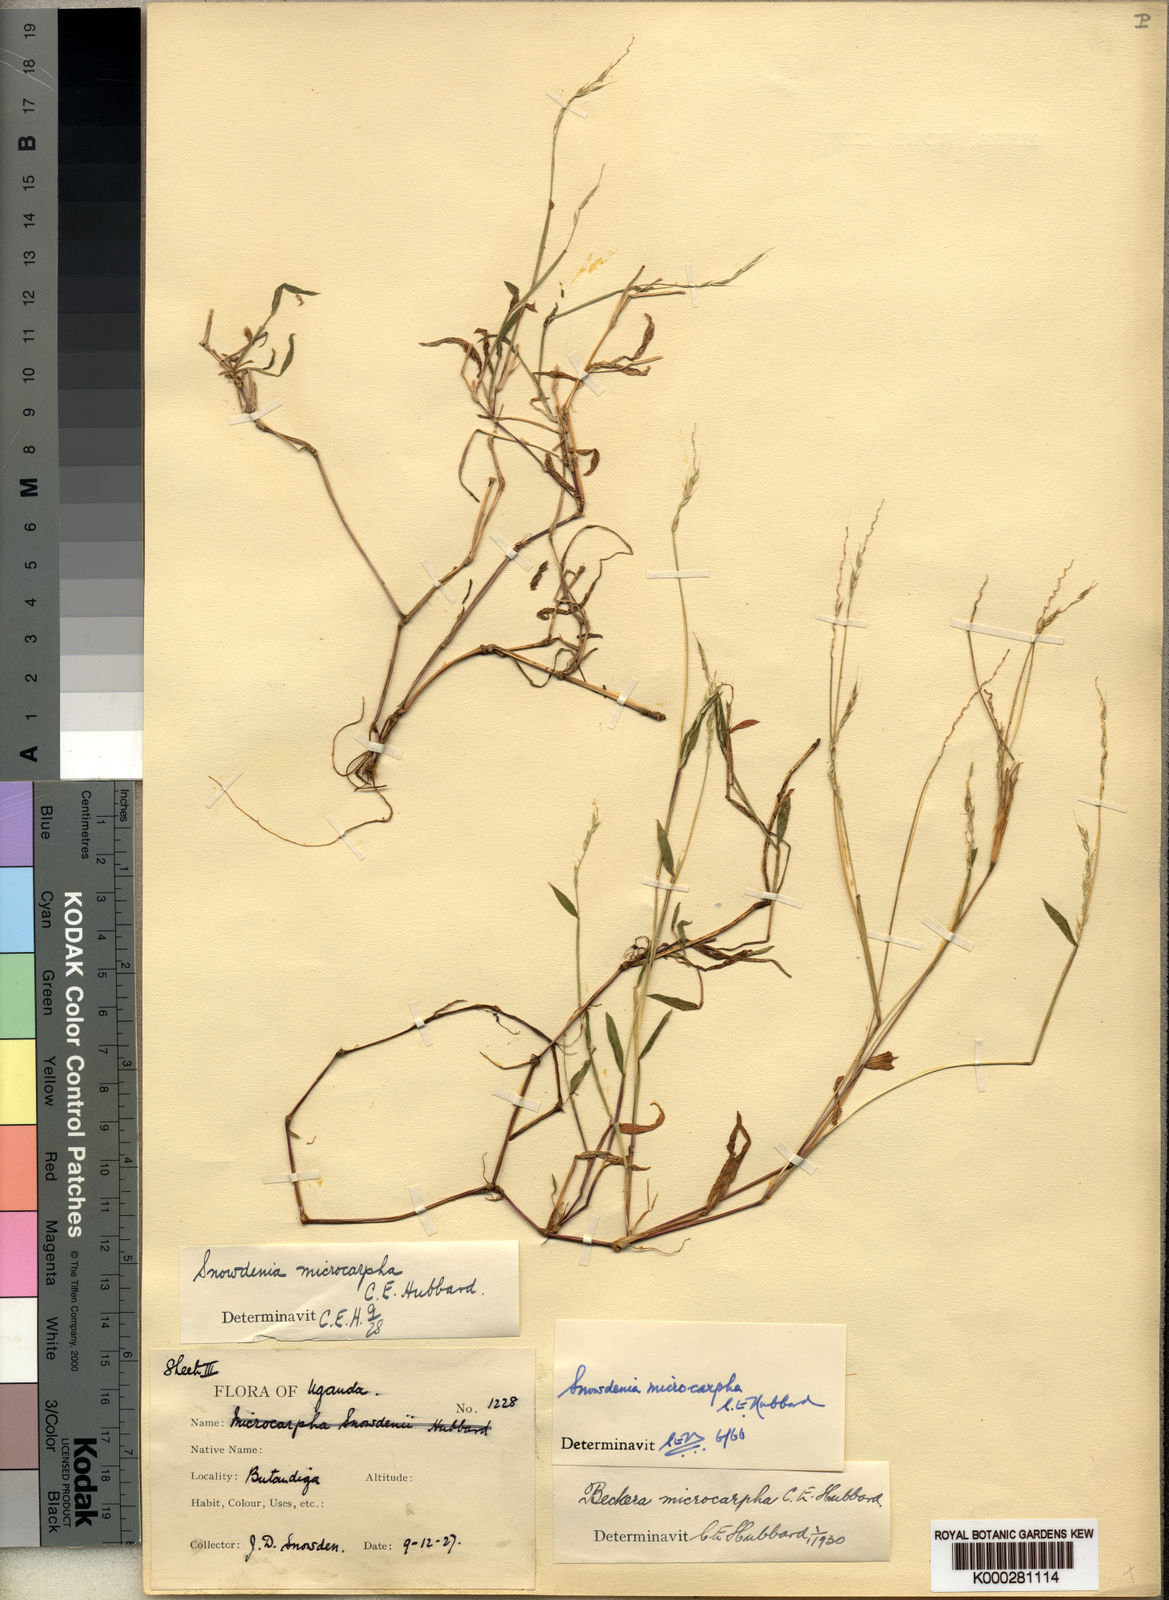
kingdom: Plantae
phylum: Tracheophyta
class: Liliopsida
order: Poales
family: Poaceae
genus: Snowdenia
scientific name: Snowdenia microcarpha
